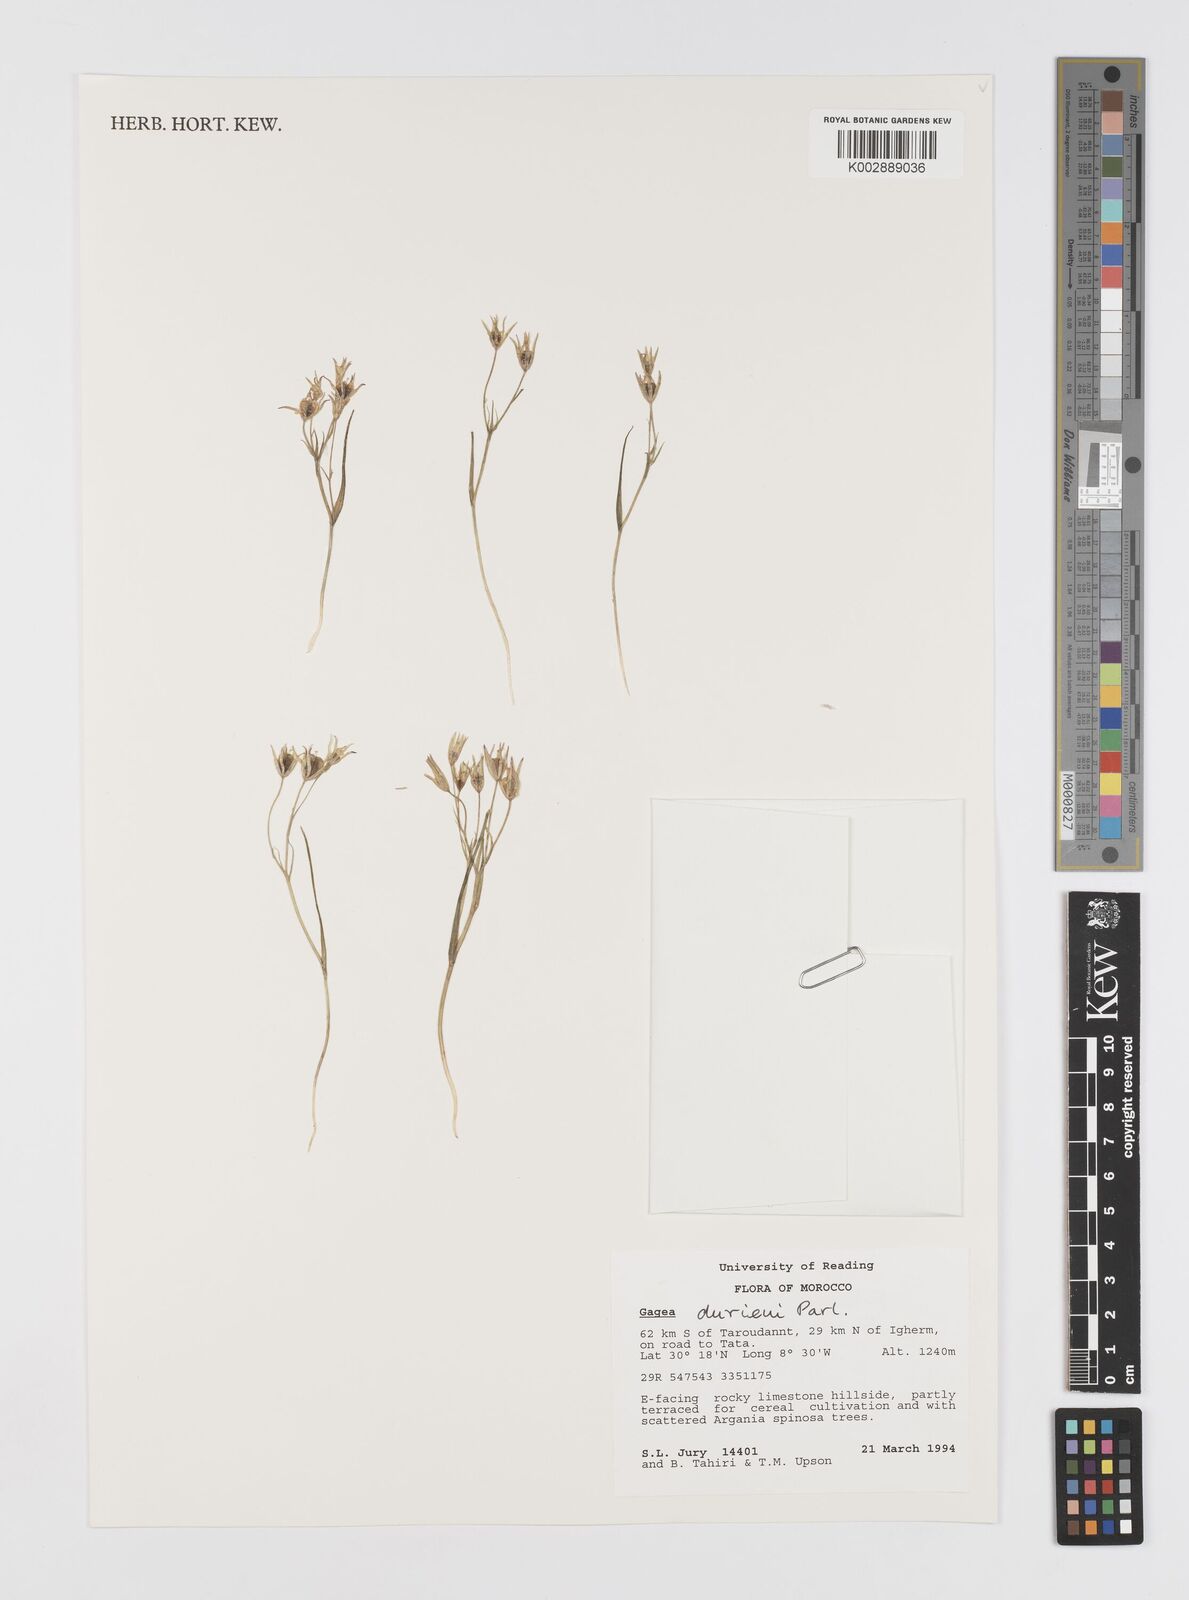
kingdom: Plantae
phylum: Tracheophyta
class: Liliopsida
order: Liliales
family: Liliaceae
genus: Gagea
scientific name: Gagea durieui
